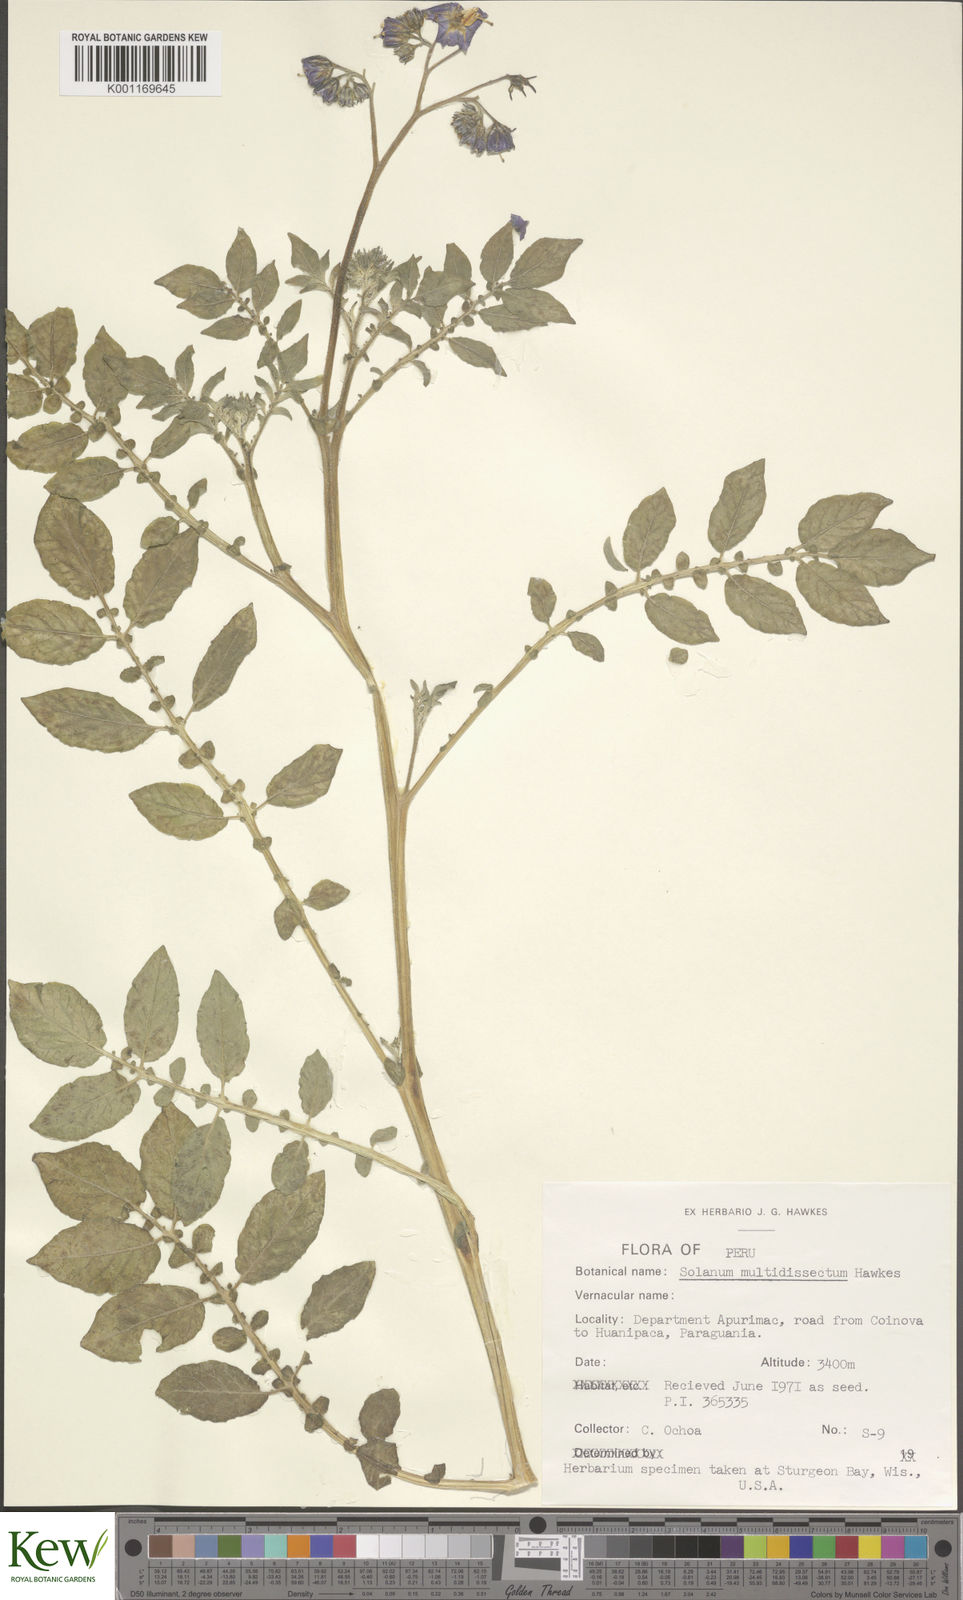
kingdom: Plantae
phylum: Tracheophyta
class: Magnoliopsida
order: Solanales
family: Solanaceae
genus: Solanum
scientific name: Solanum candolleanum
